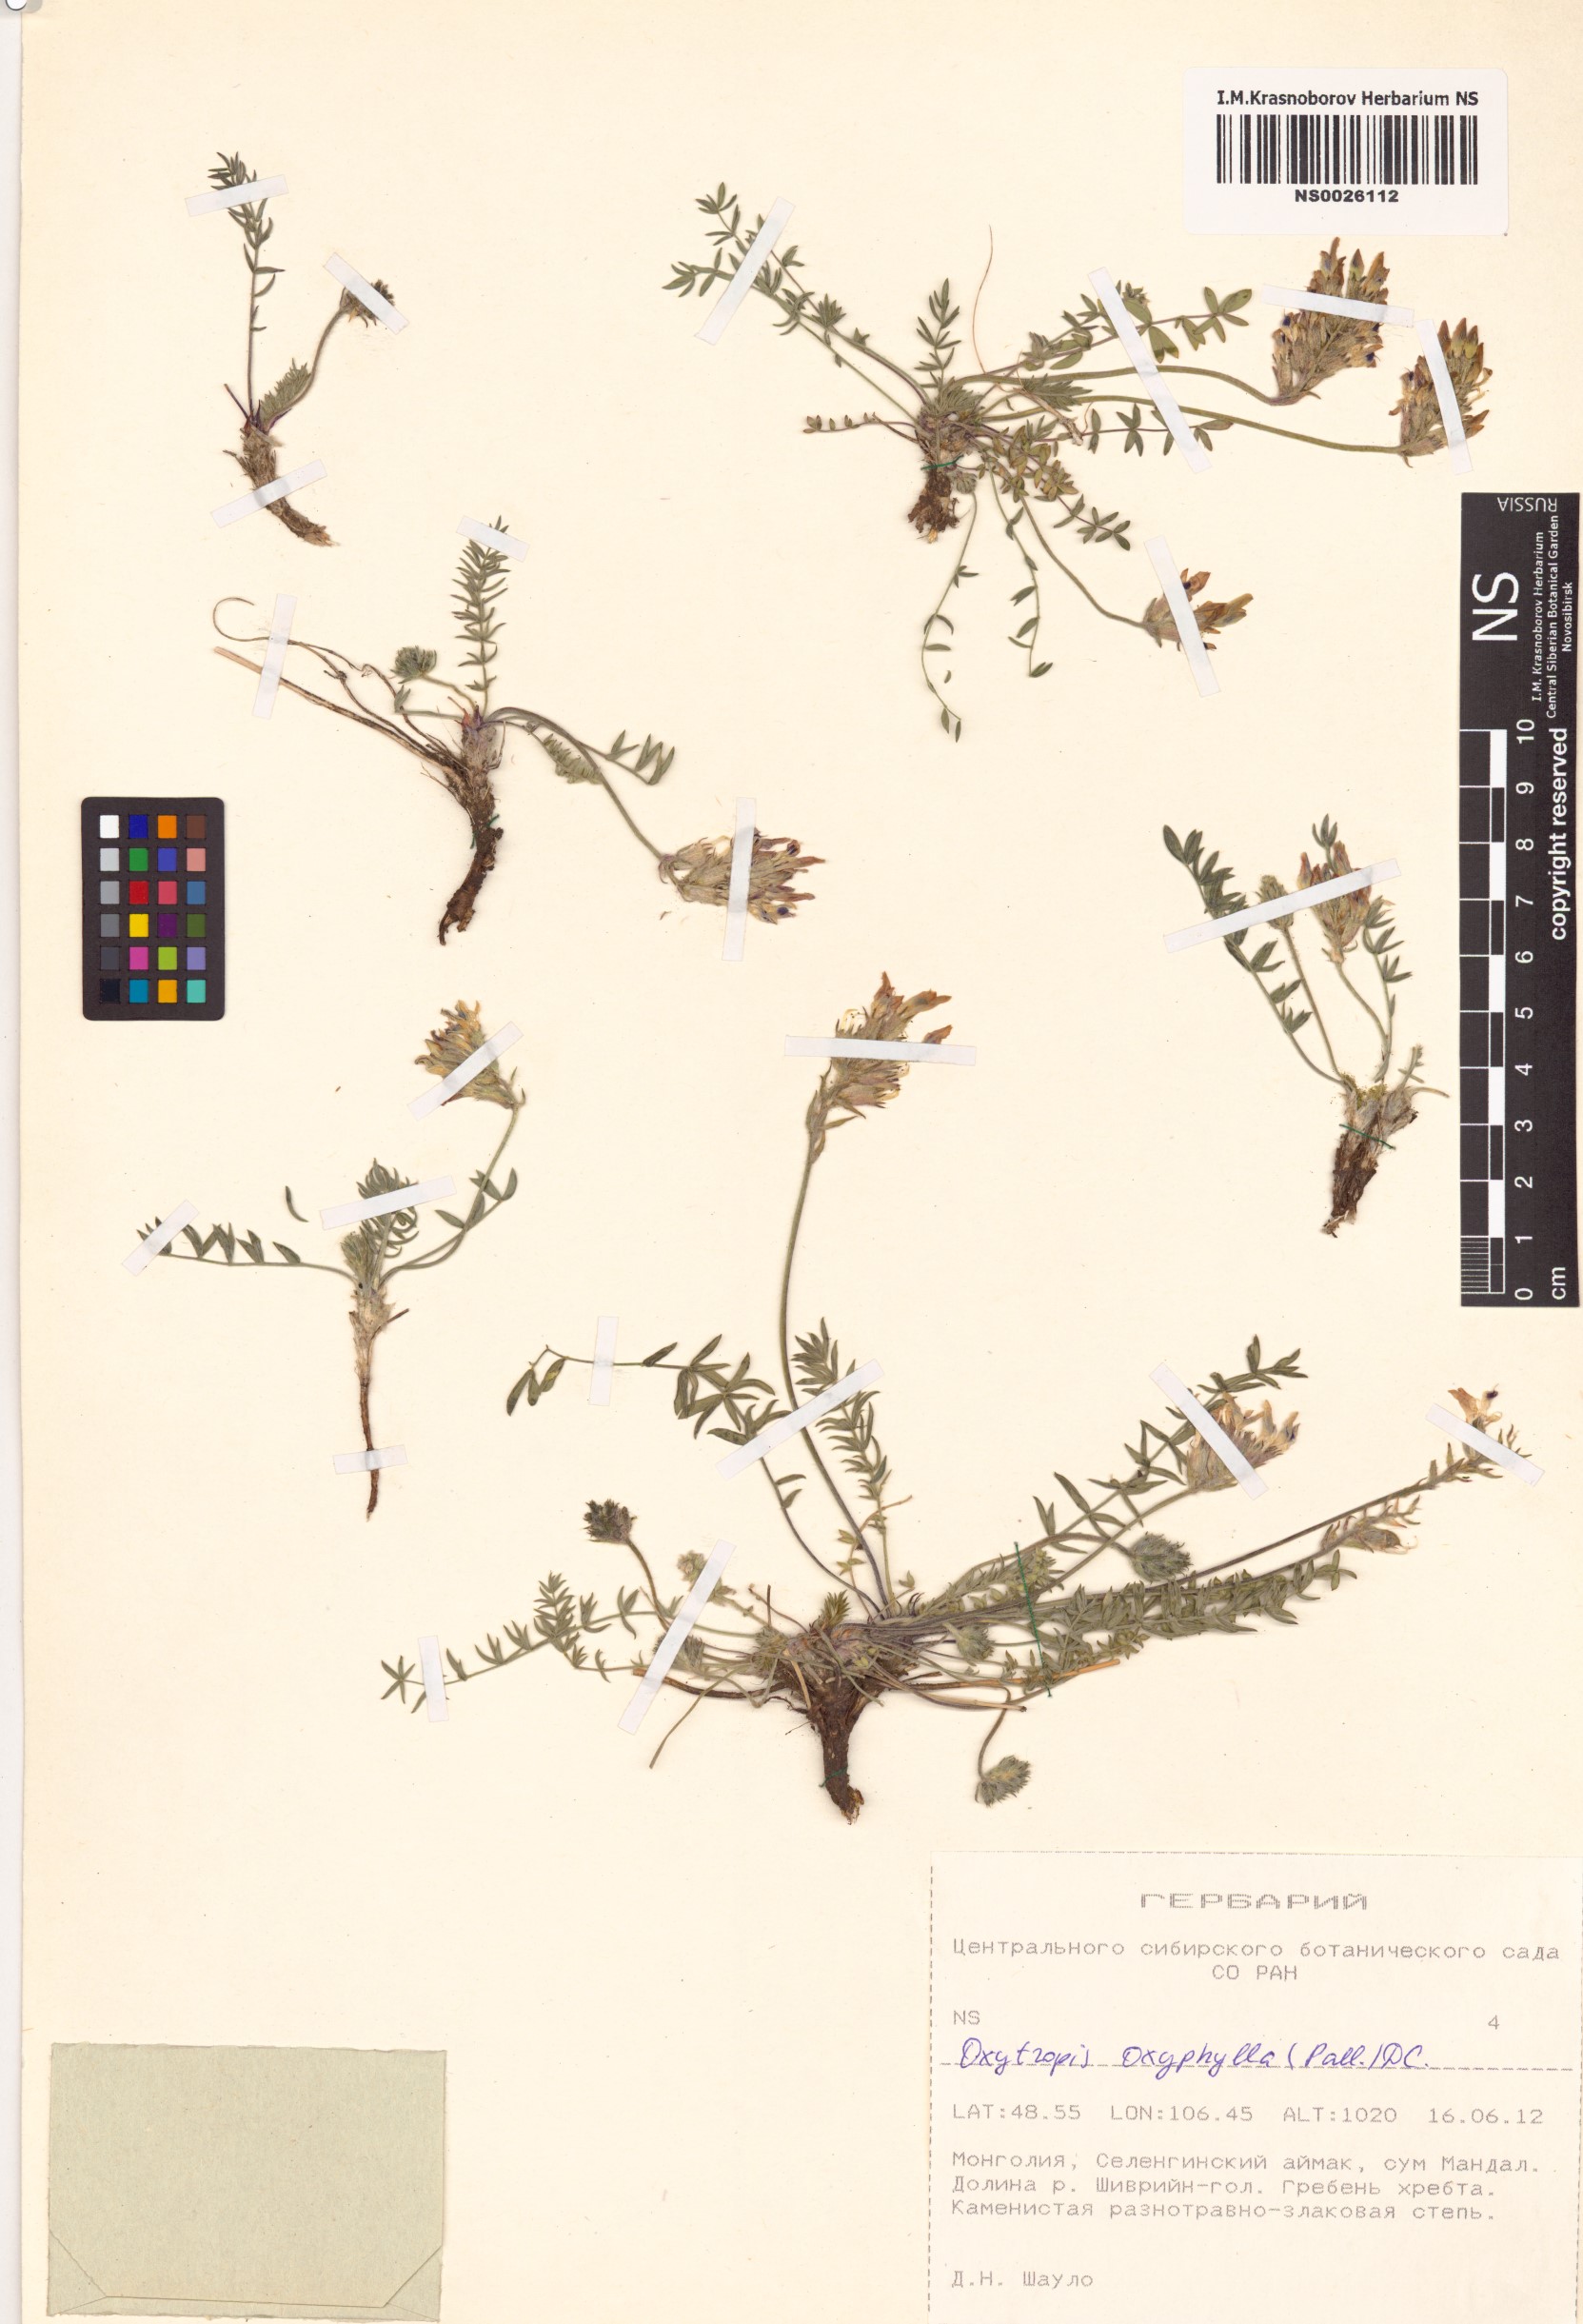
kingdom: Plantae
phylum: Tracheophyta
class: Magnoliopsida
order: Fabales
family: Fabaceae
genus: Oxytropis
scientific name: Oxytropis oxyphylla
